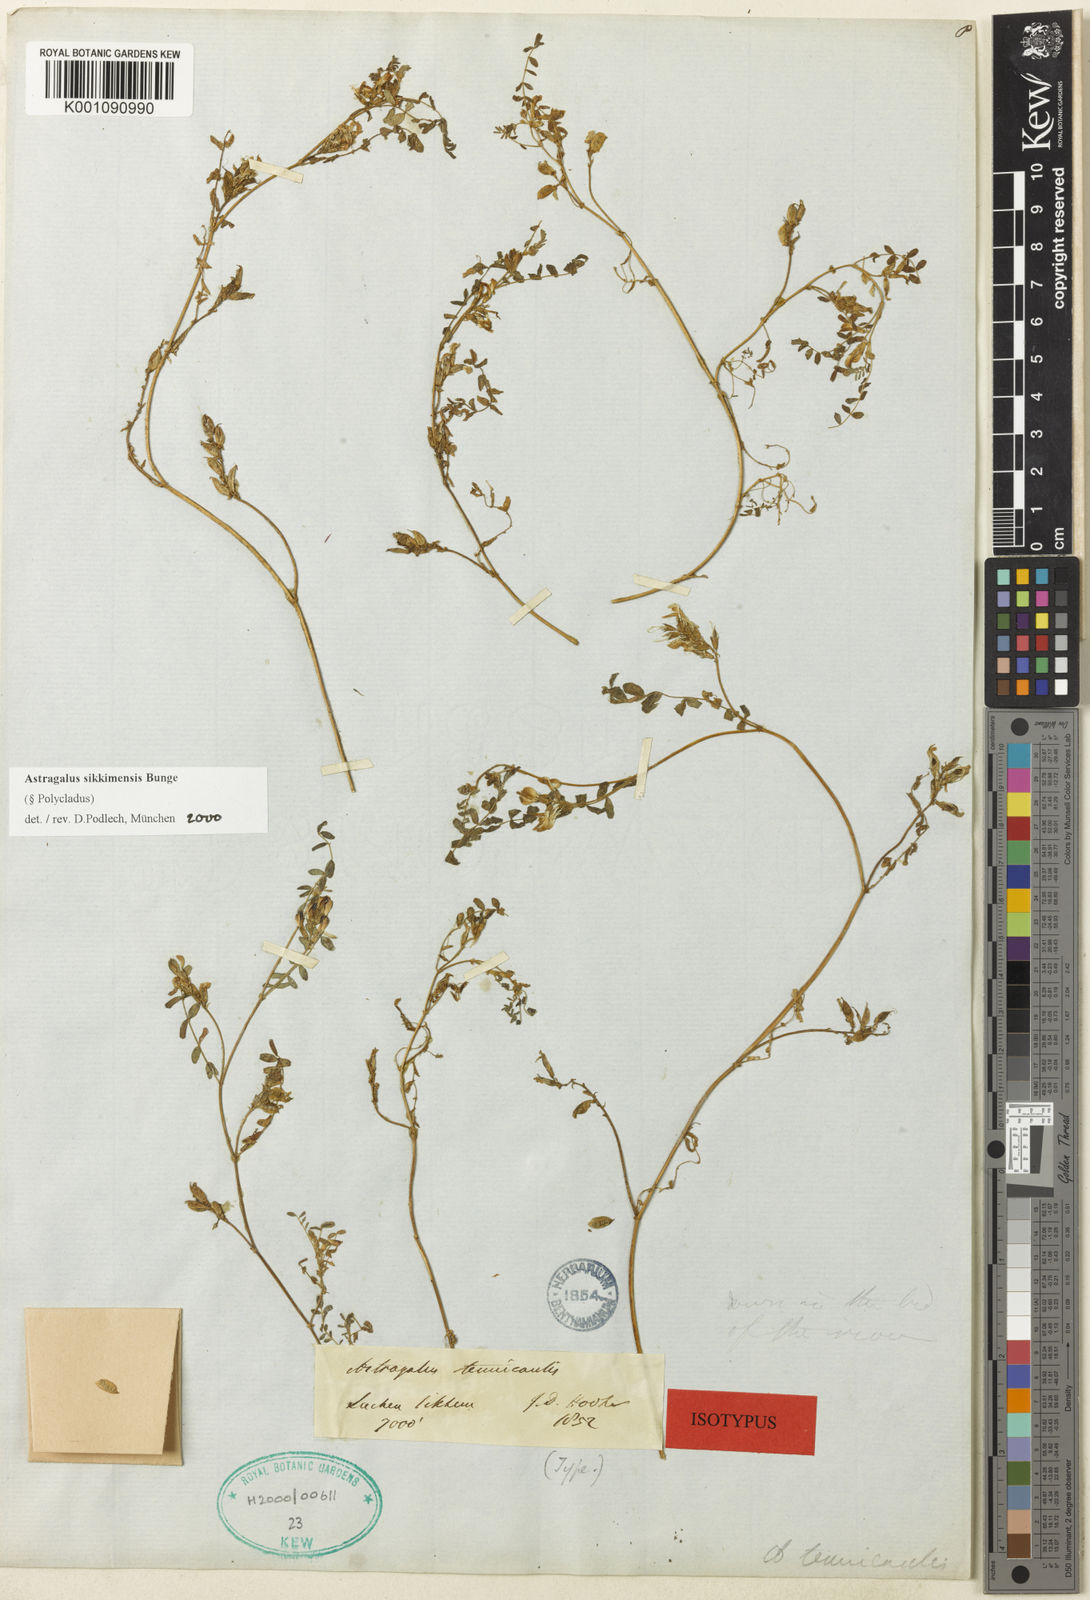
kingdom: Plantae
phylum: Tracheophyta
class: Magnoliopsida
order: Fabales
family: Fabaceae
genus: Astragalus
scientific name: Astragalus
